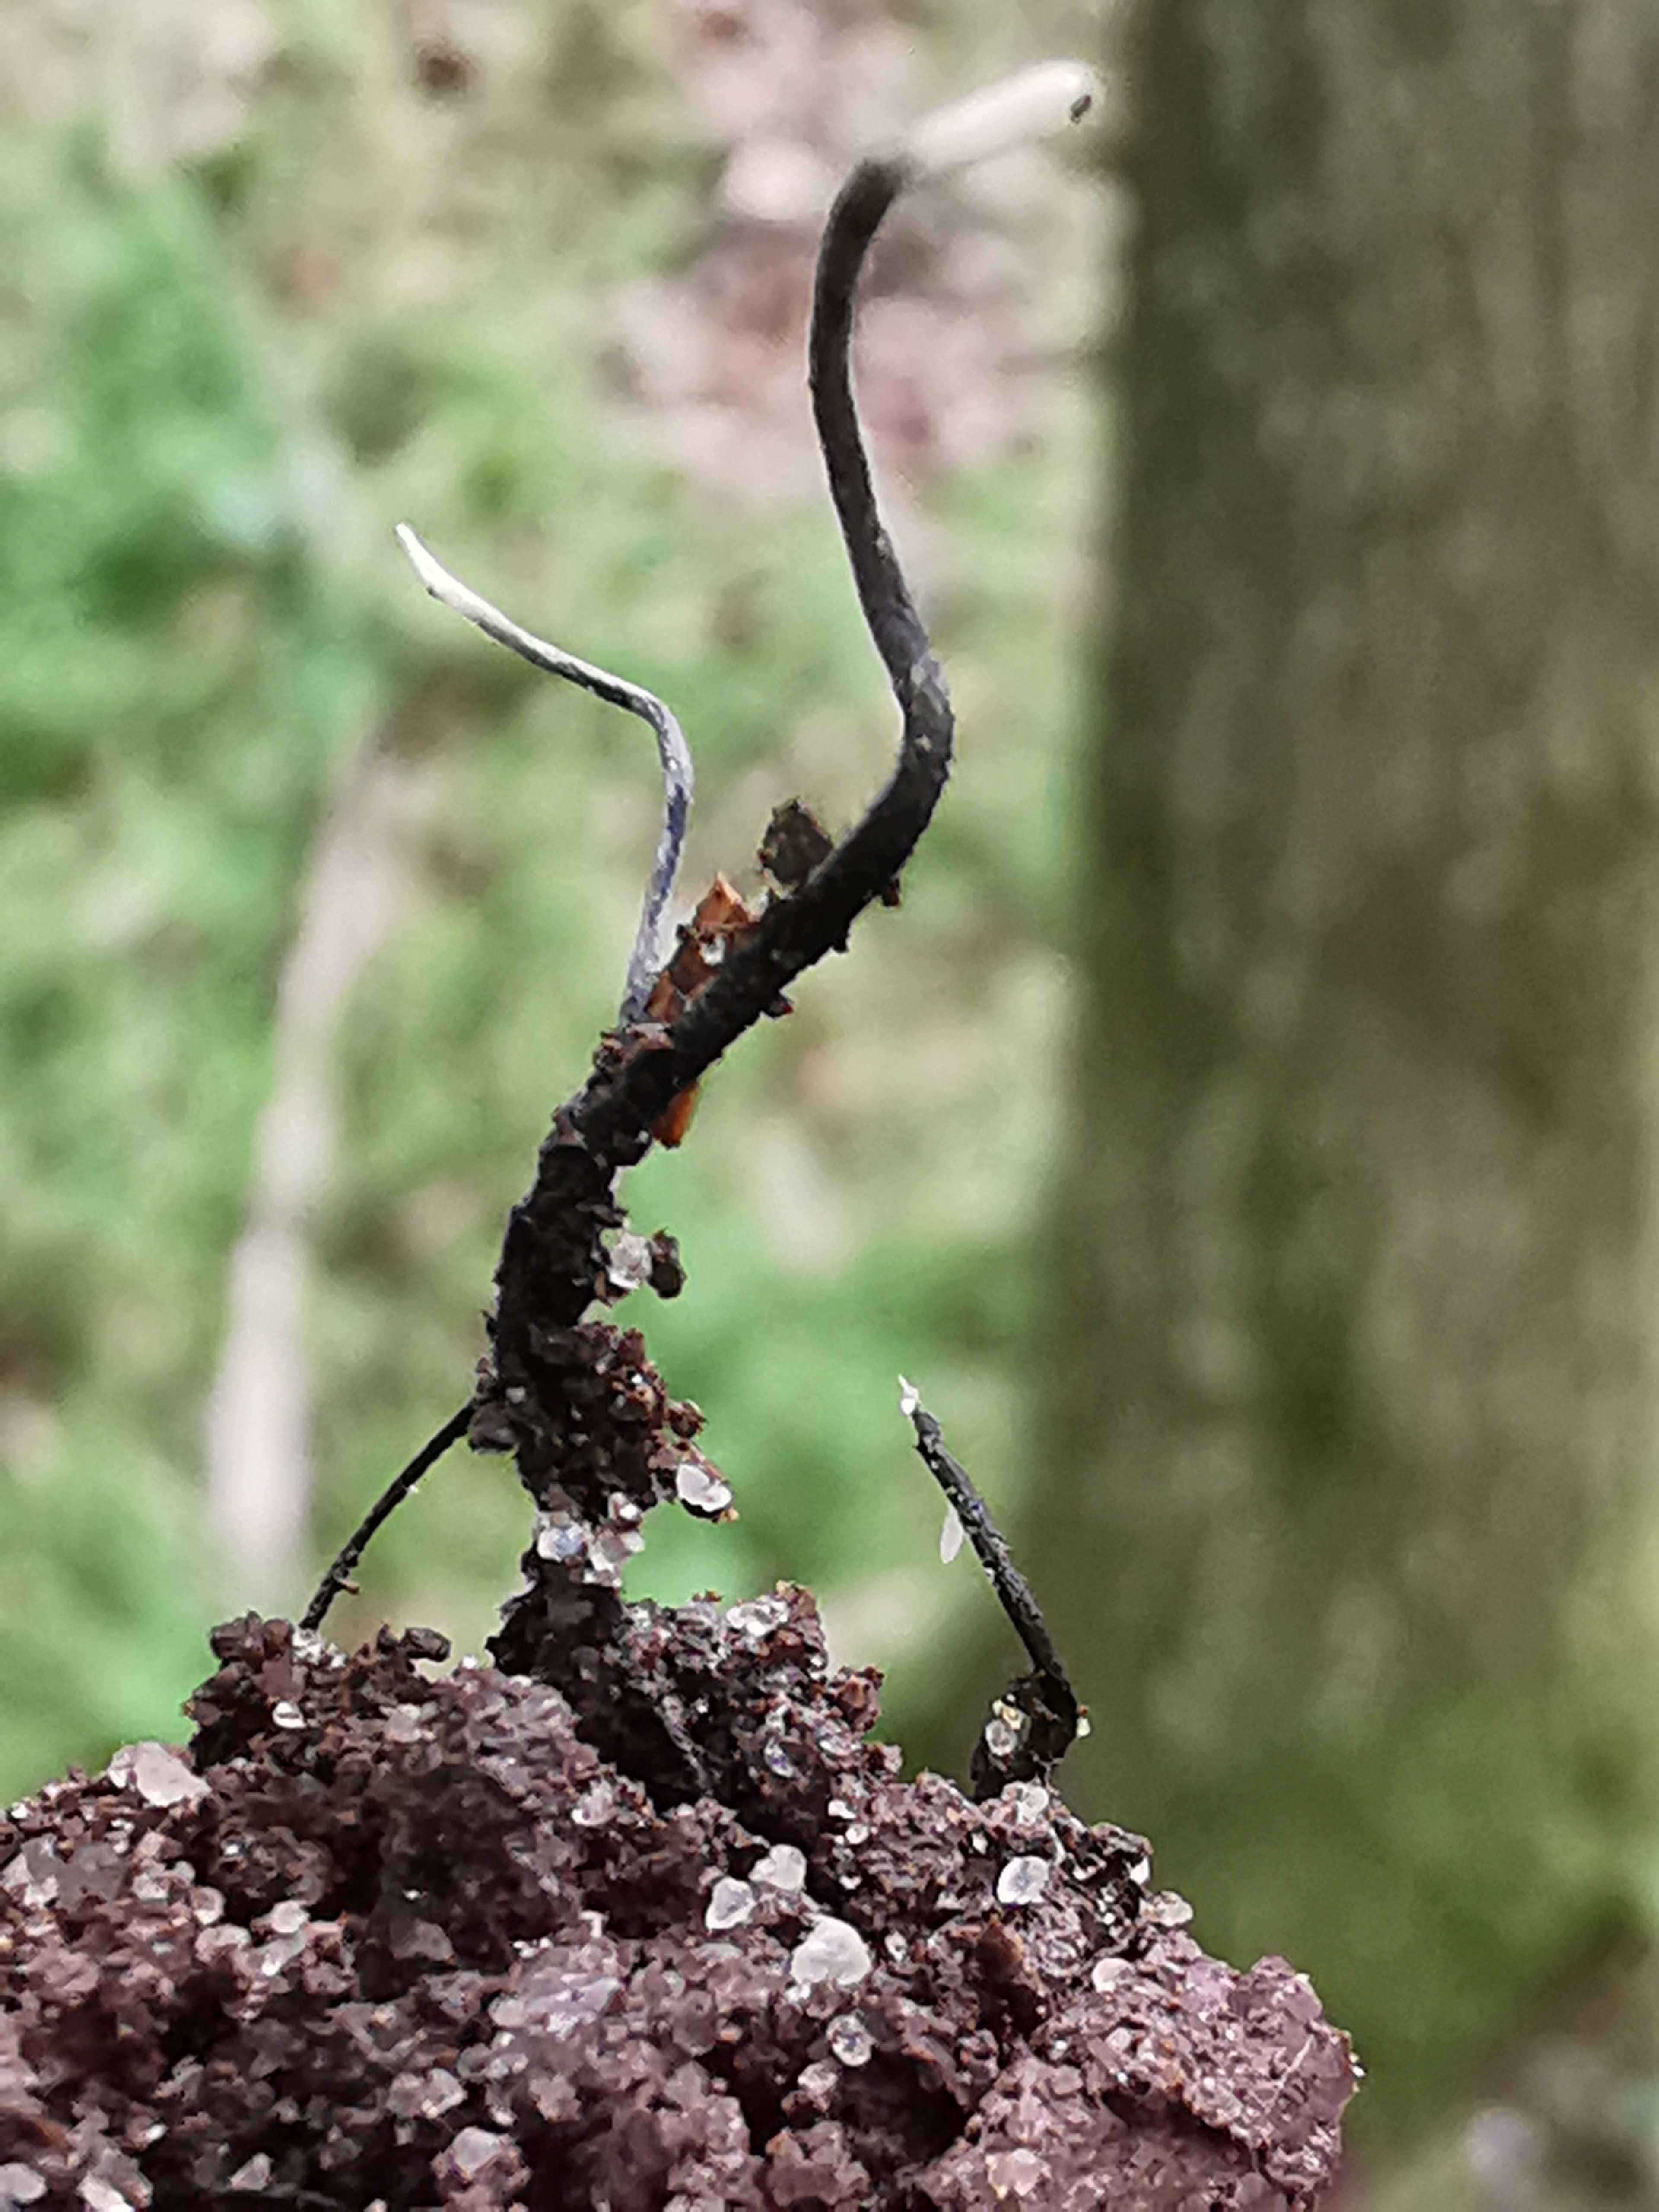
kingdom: Fungi
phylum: Ascomycota
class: Sordariomycetes
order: Xylariales
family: Xylariaceae
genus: Xylaria
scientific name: Xylaria carpophila
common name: bogskål-stødsvamp
